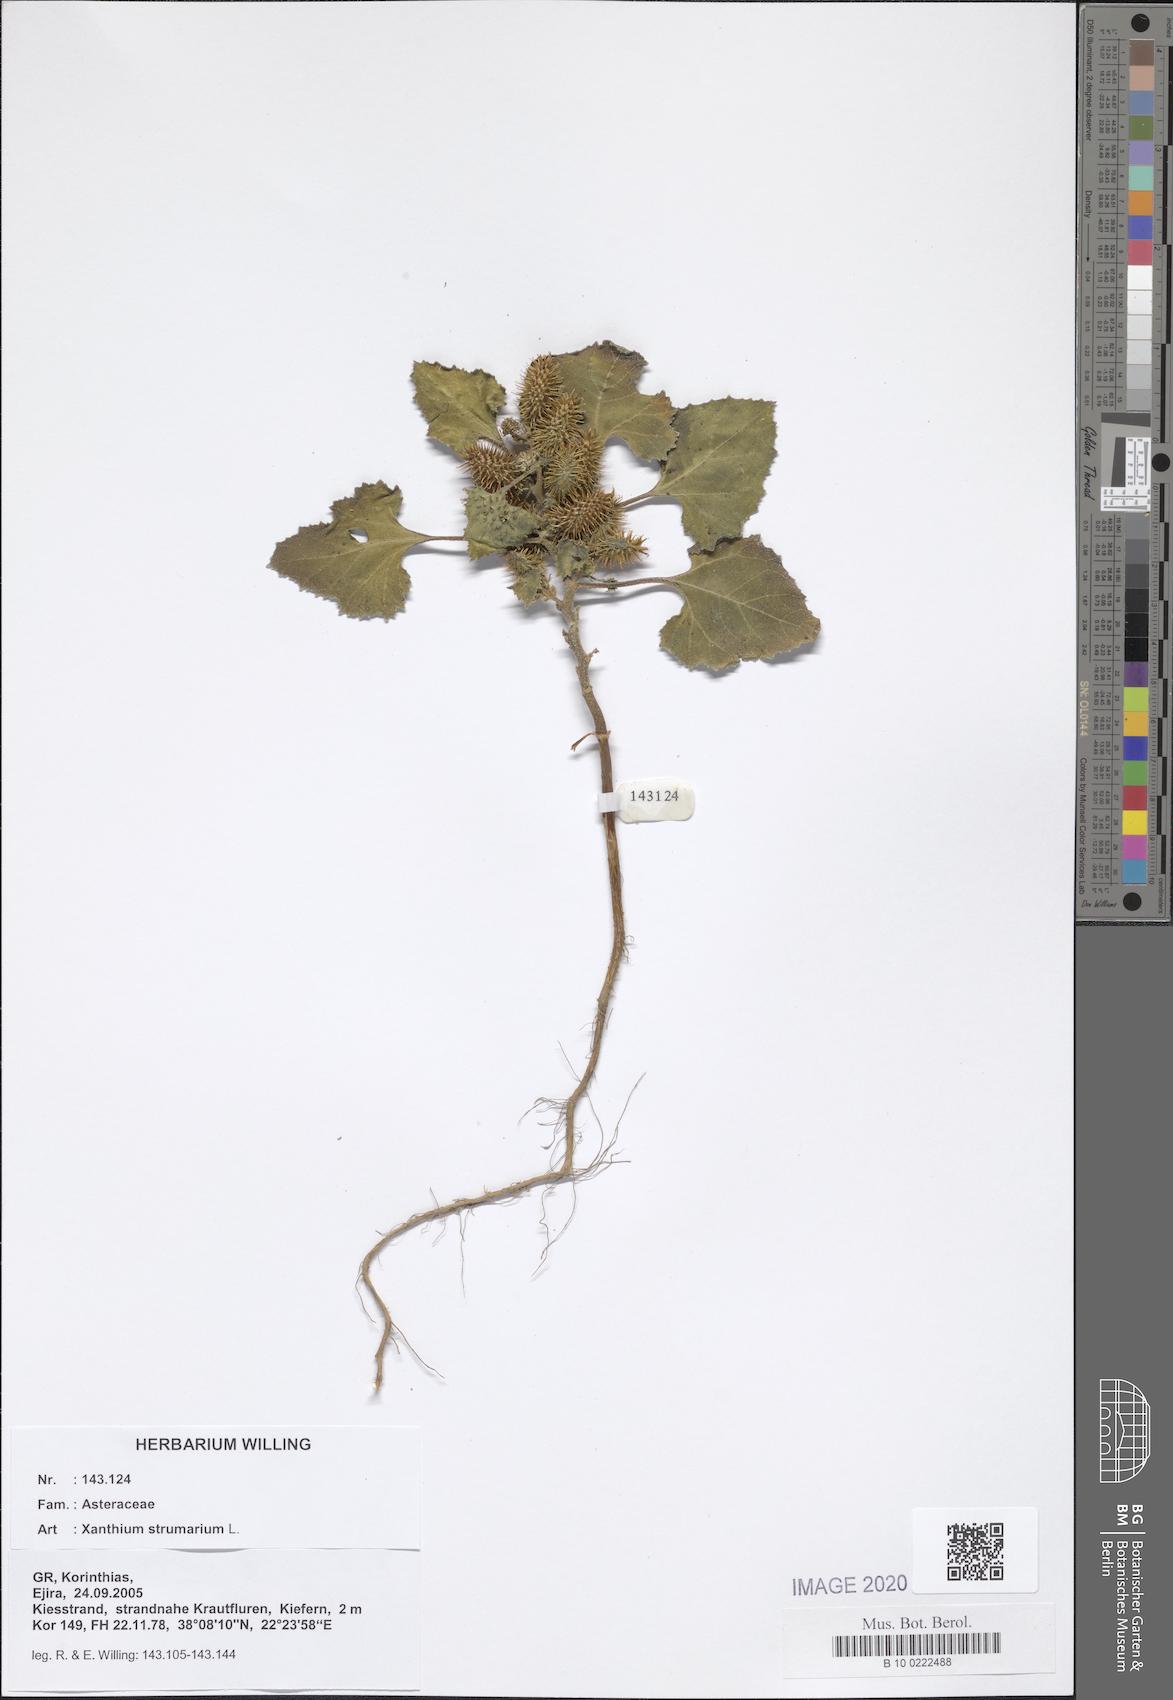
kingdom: Plantae
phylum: Tracheophyta
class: Magnoliopsida
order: Asterales
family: Asteraceae
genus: Xanthium
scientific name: Xanthium strumarium
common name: Rough cocklebur
